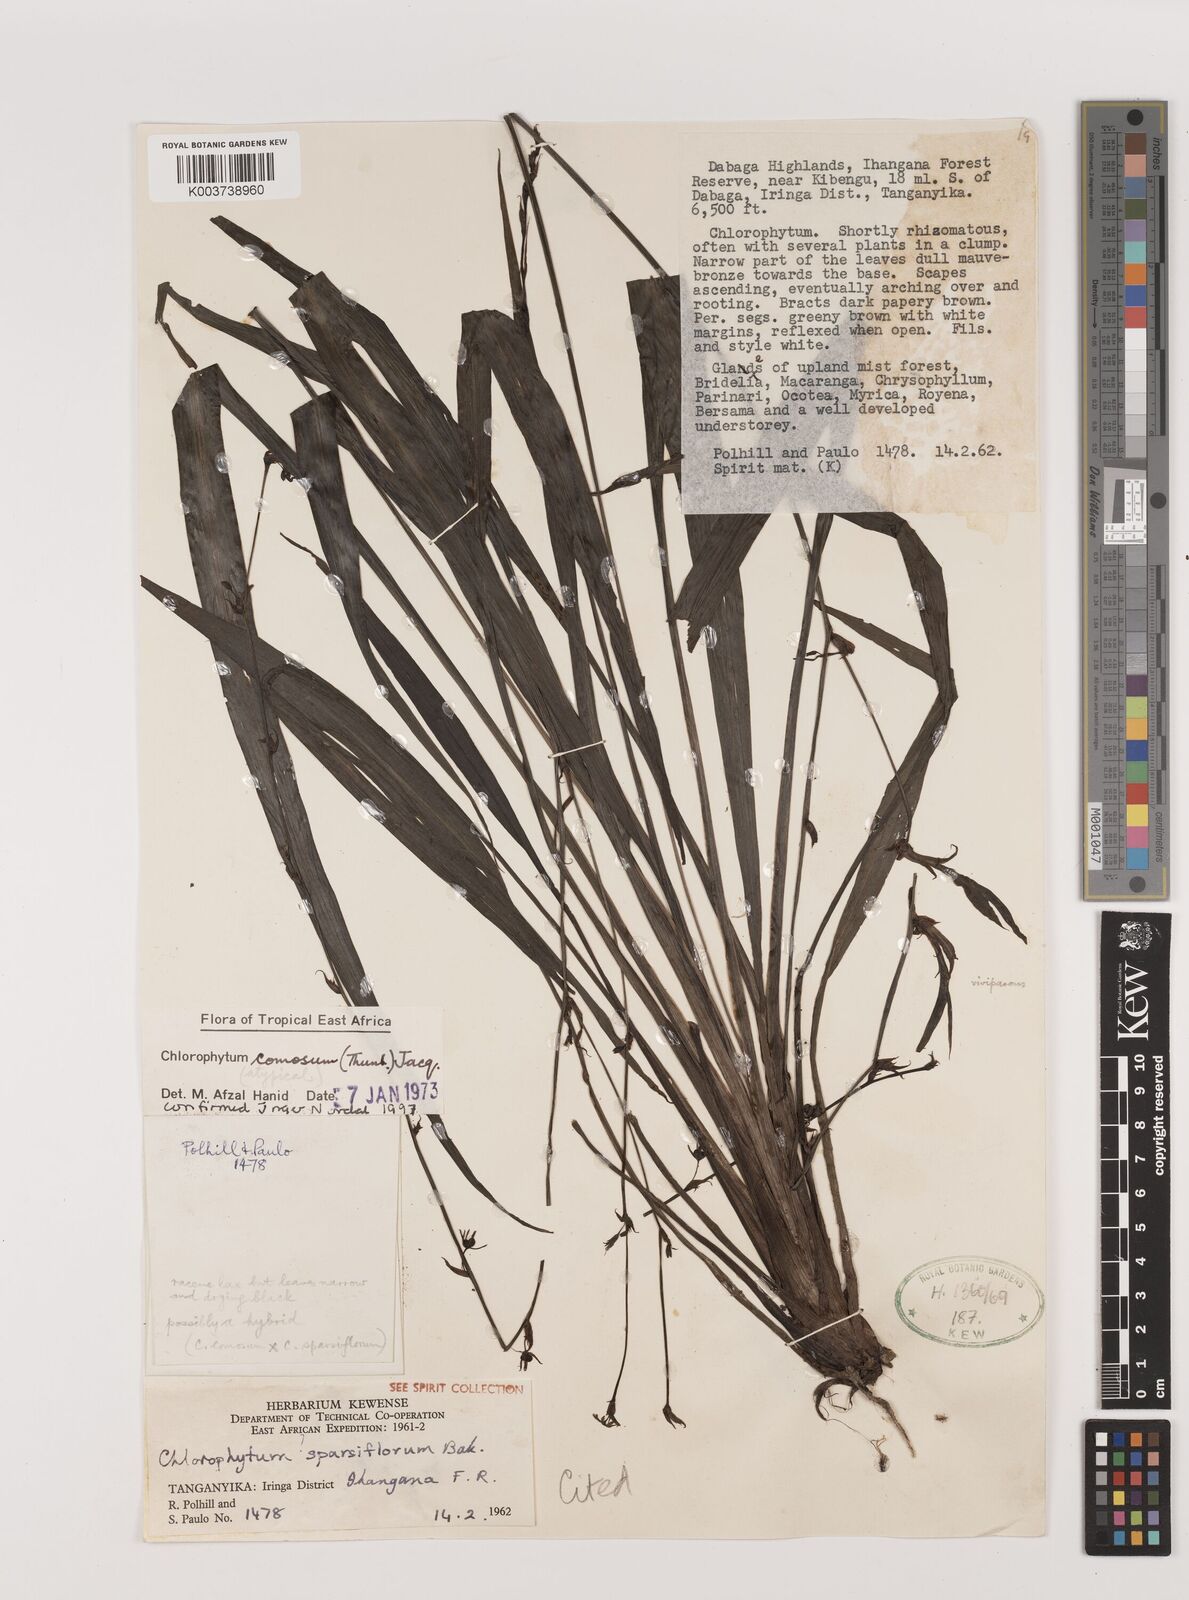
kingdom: Plantae
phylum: Tracheophyta
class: Liliopsida
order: Asparagales
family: Asparagaceae
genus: Chlorophytum
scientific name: Chlorophytum comosum
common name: Spider plant
